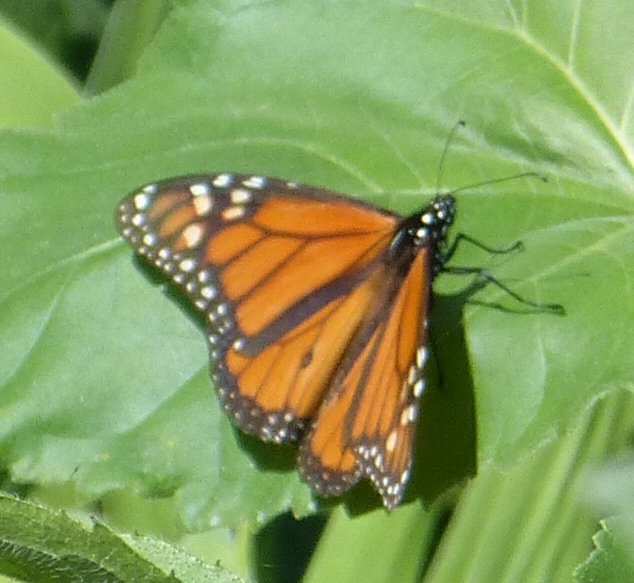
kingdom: Animalia
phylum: Arthropoda
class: Insecta
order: Lepidoptera
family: Nymphalidae
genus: Danaus
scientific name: Danaus plexippus
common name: Monarch
